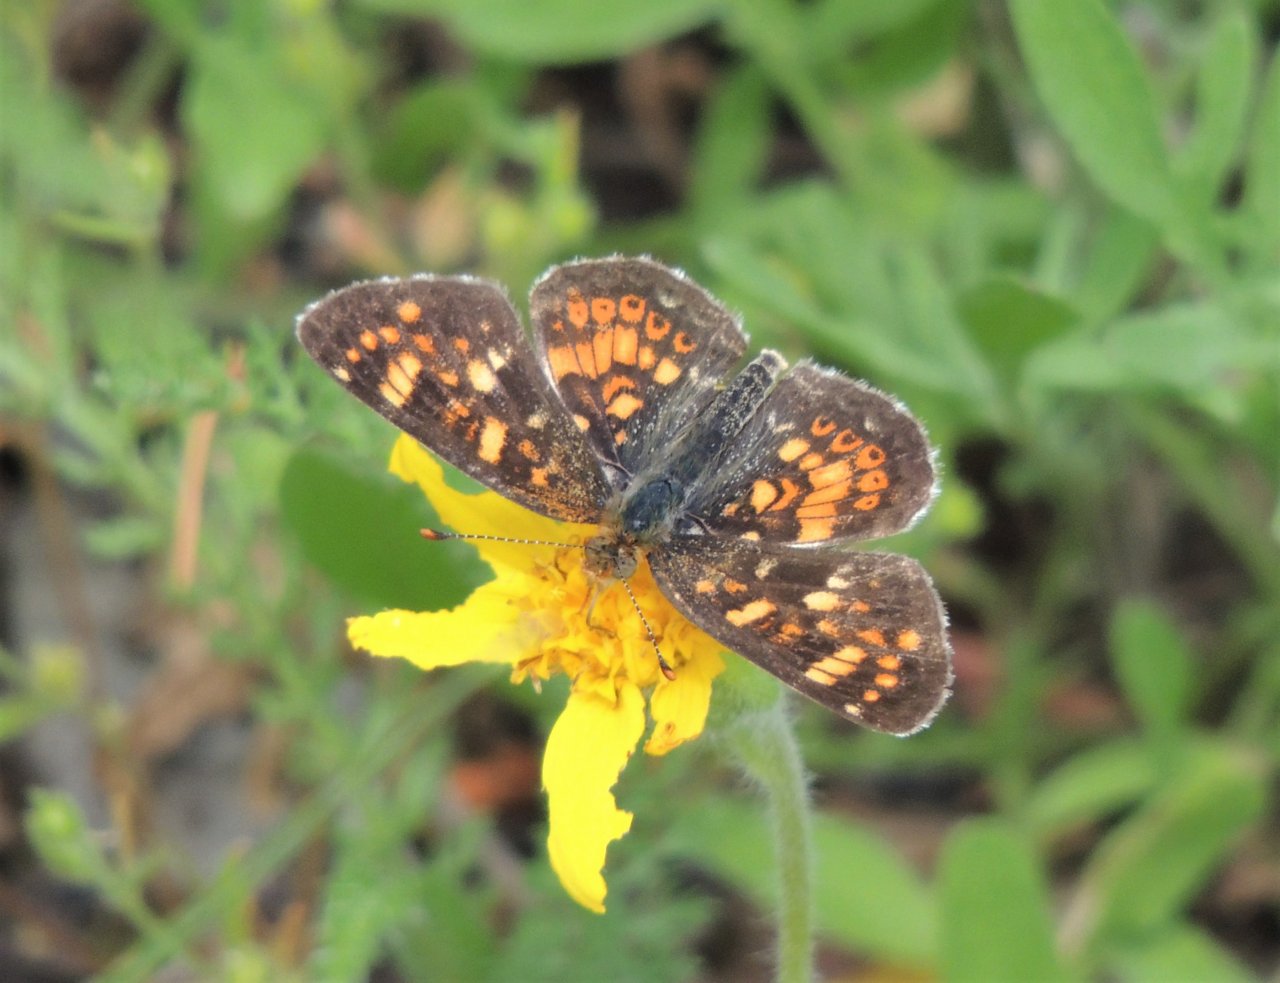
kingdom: Animalia
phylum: Arthropoda
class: Insecta
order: Lepidoptera
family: Nymphalidae
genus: Phyciodes
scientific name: Phyciodes tharos
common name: Field Crescent
